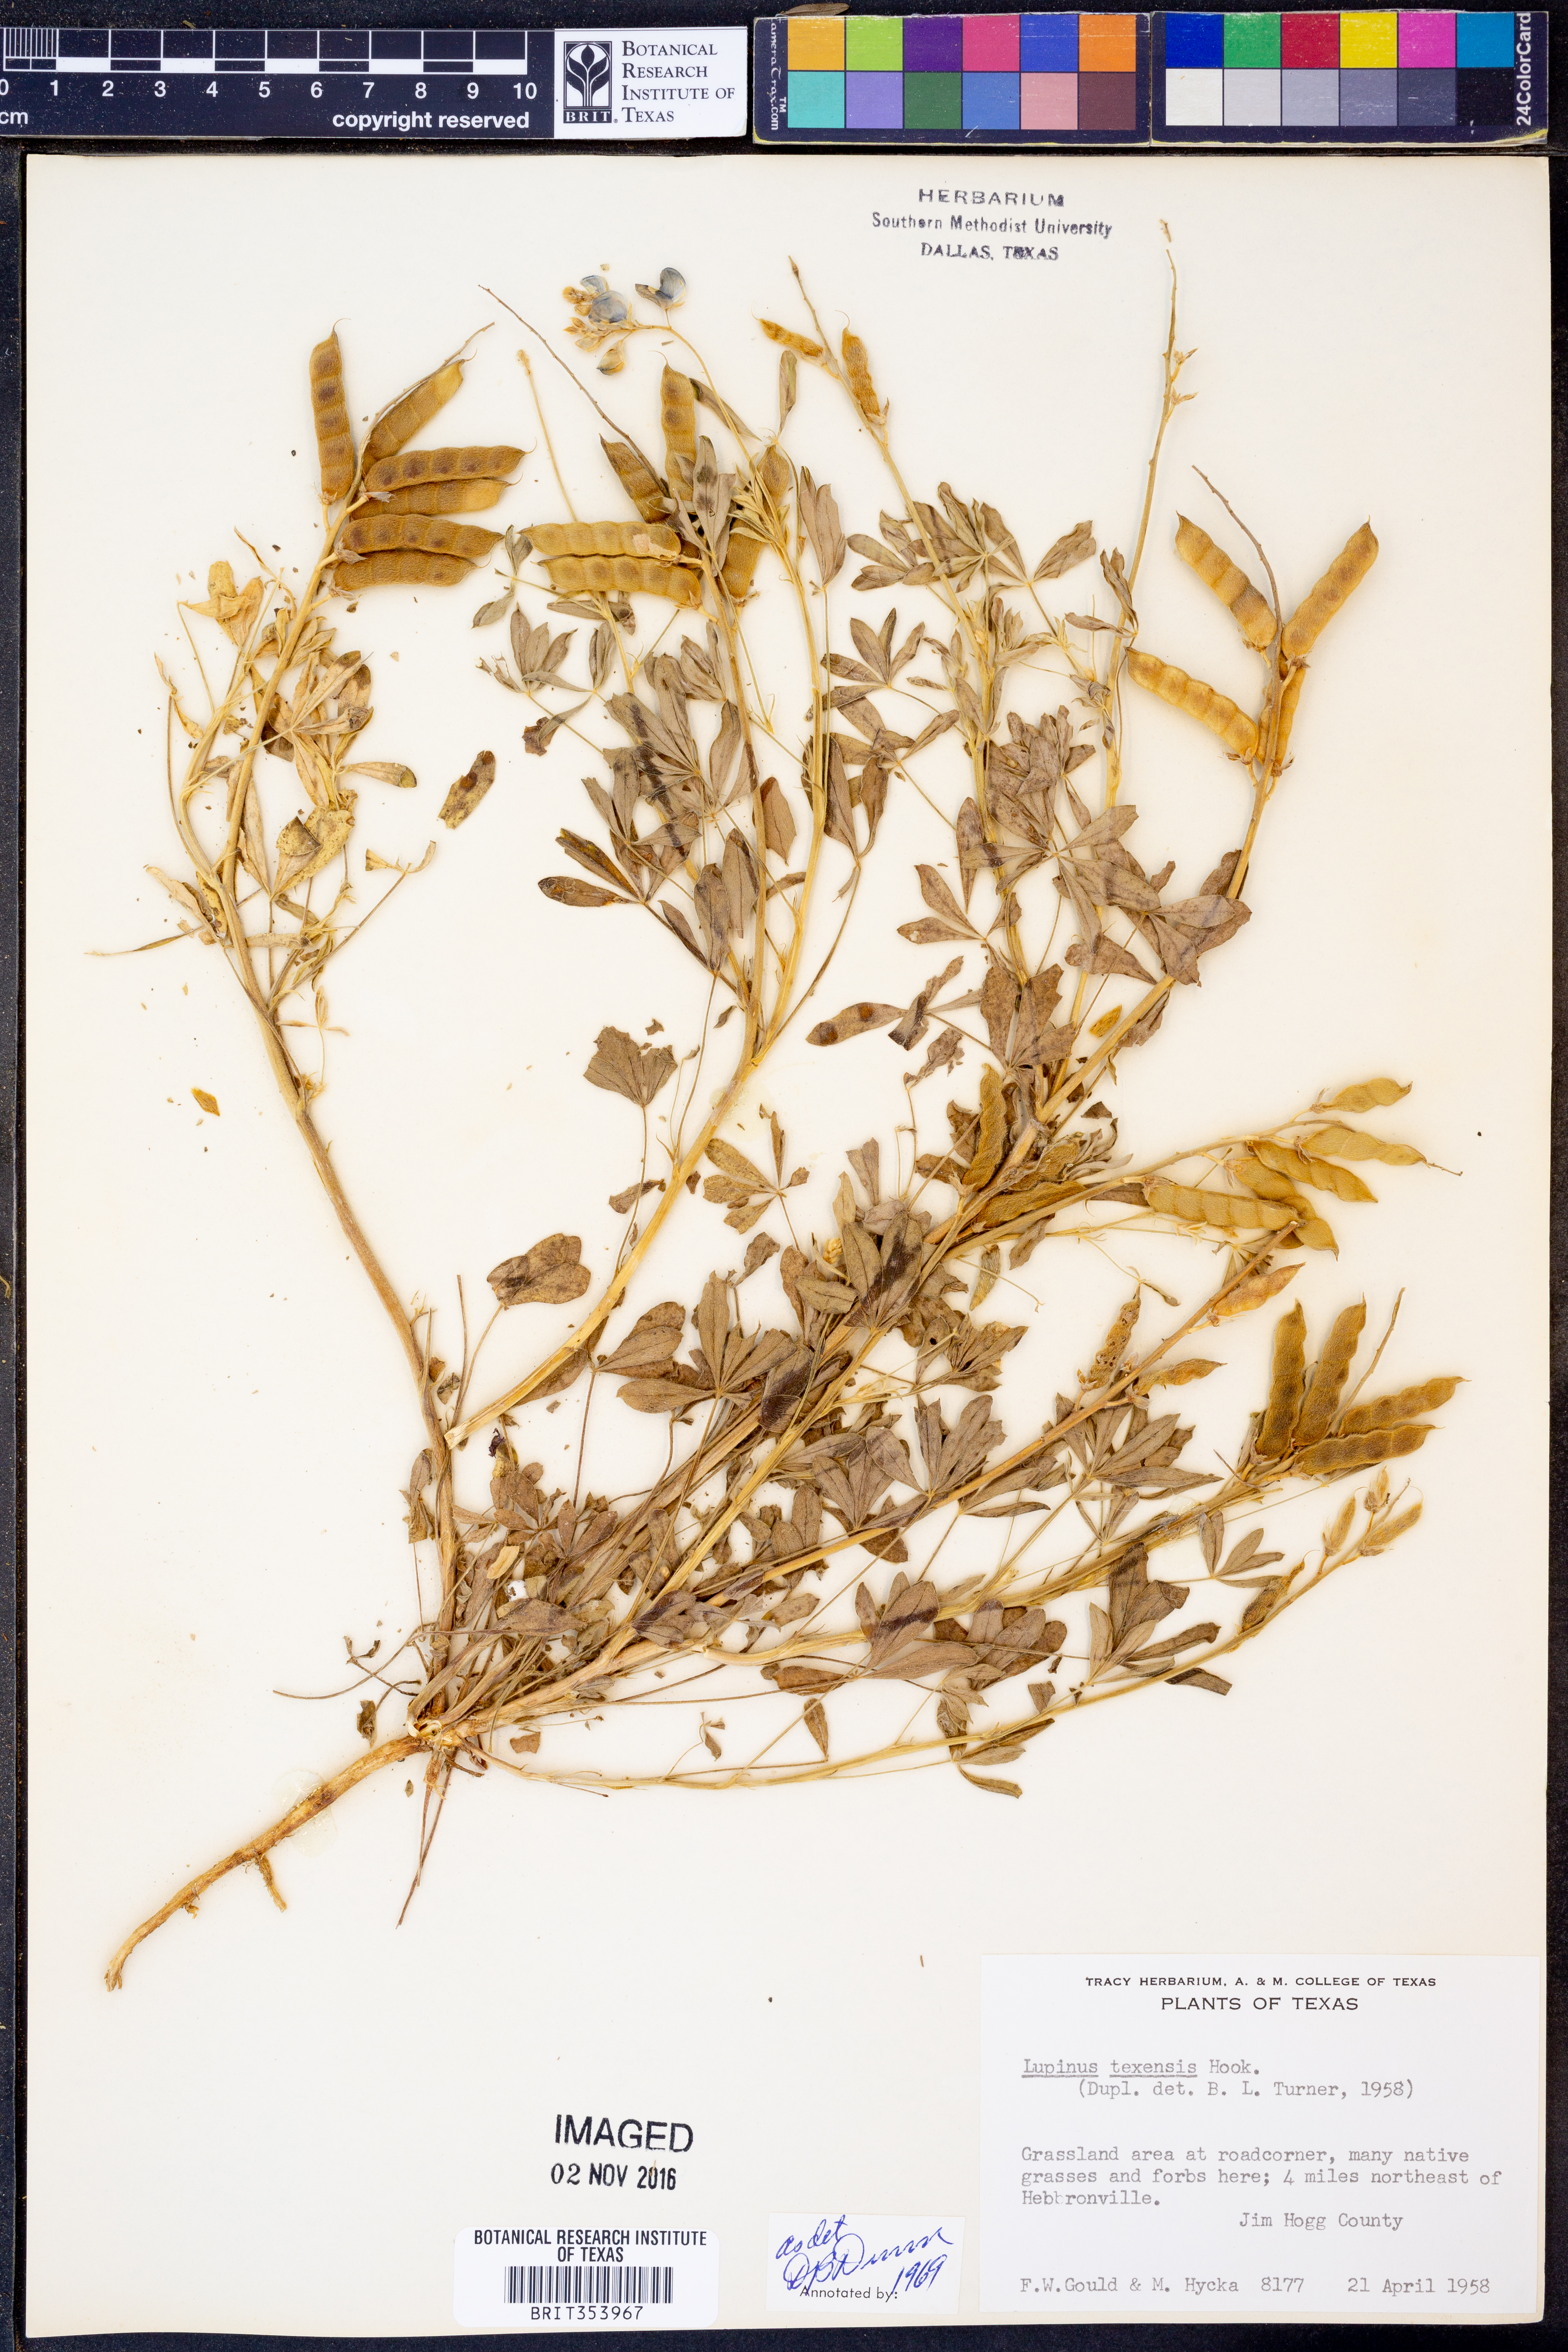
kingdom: Plantae
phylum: Tracheophyta
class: Magnoliopsida
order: Fabales
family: Fabaceae
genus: Lupinus
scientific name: Lupinus texensis
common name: Texas bluebonnet
